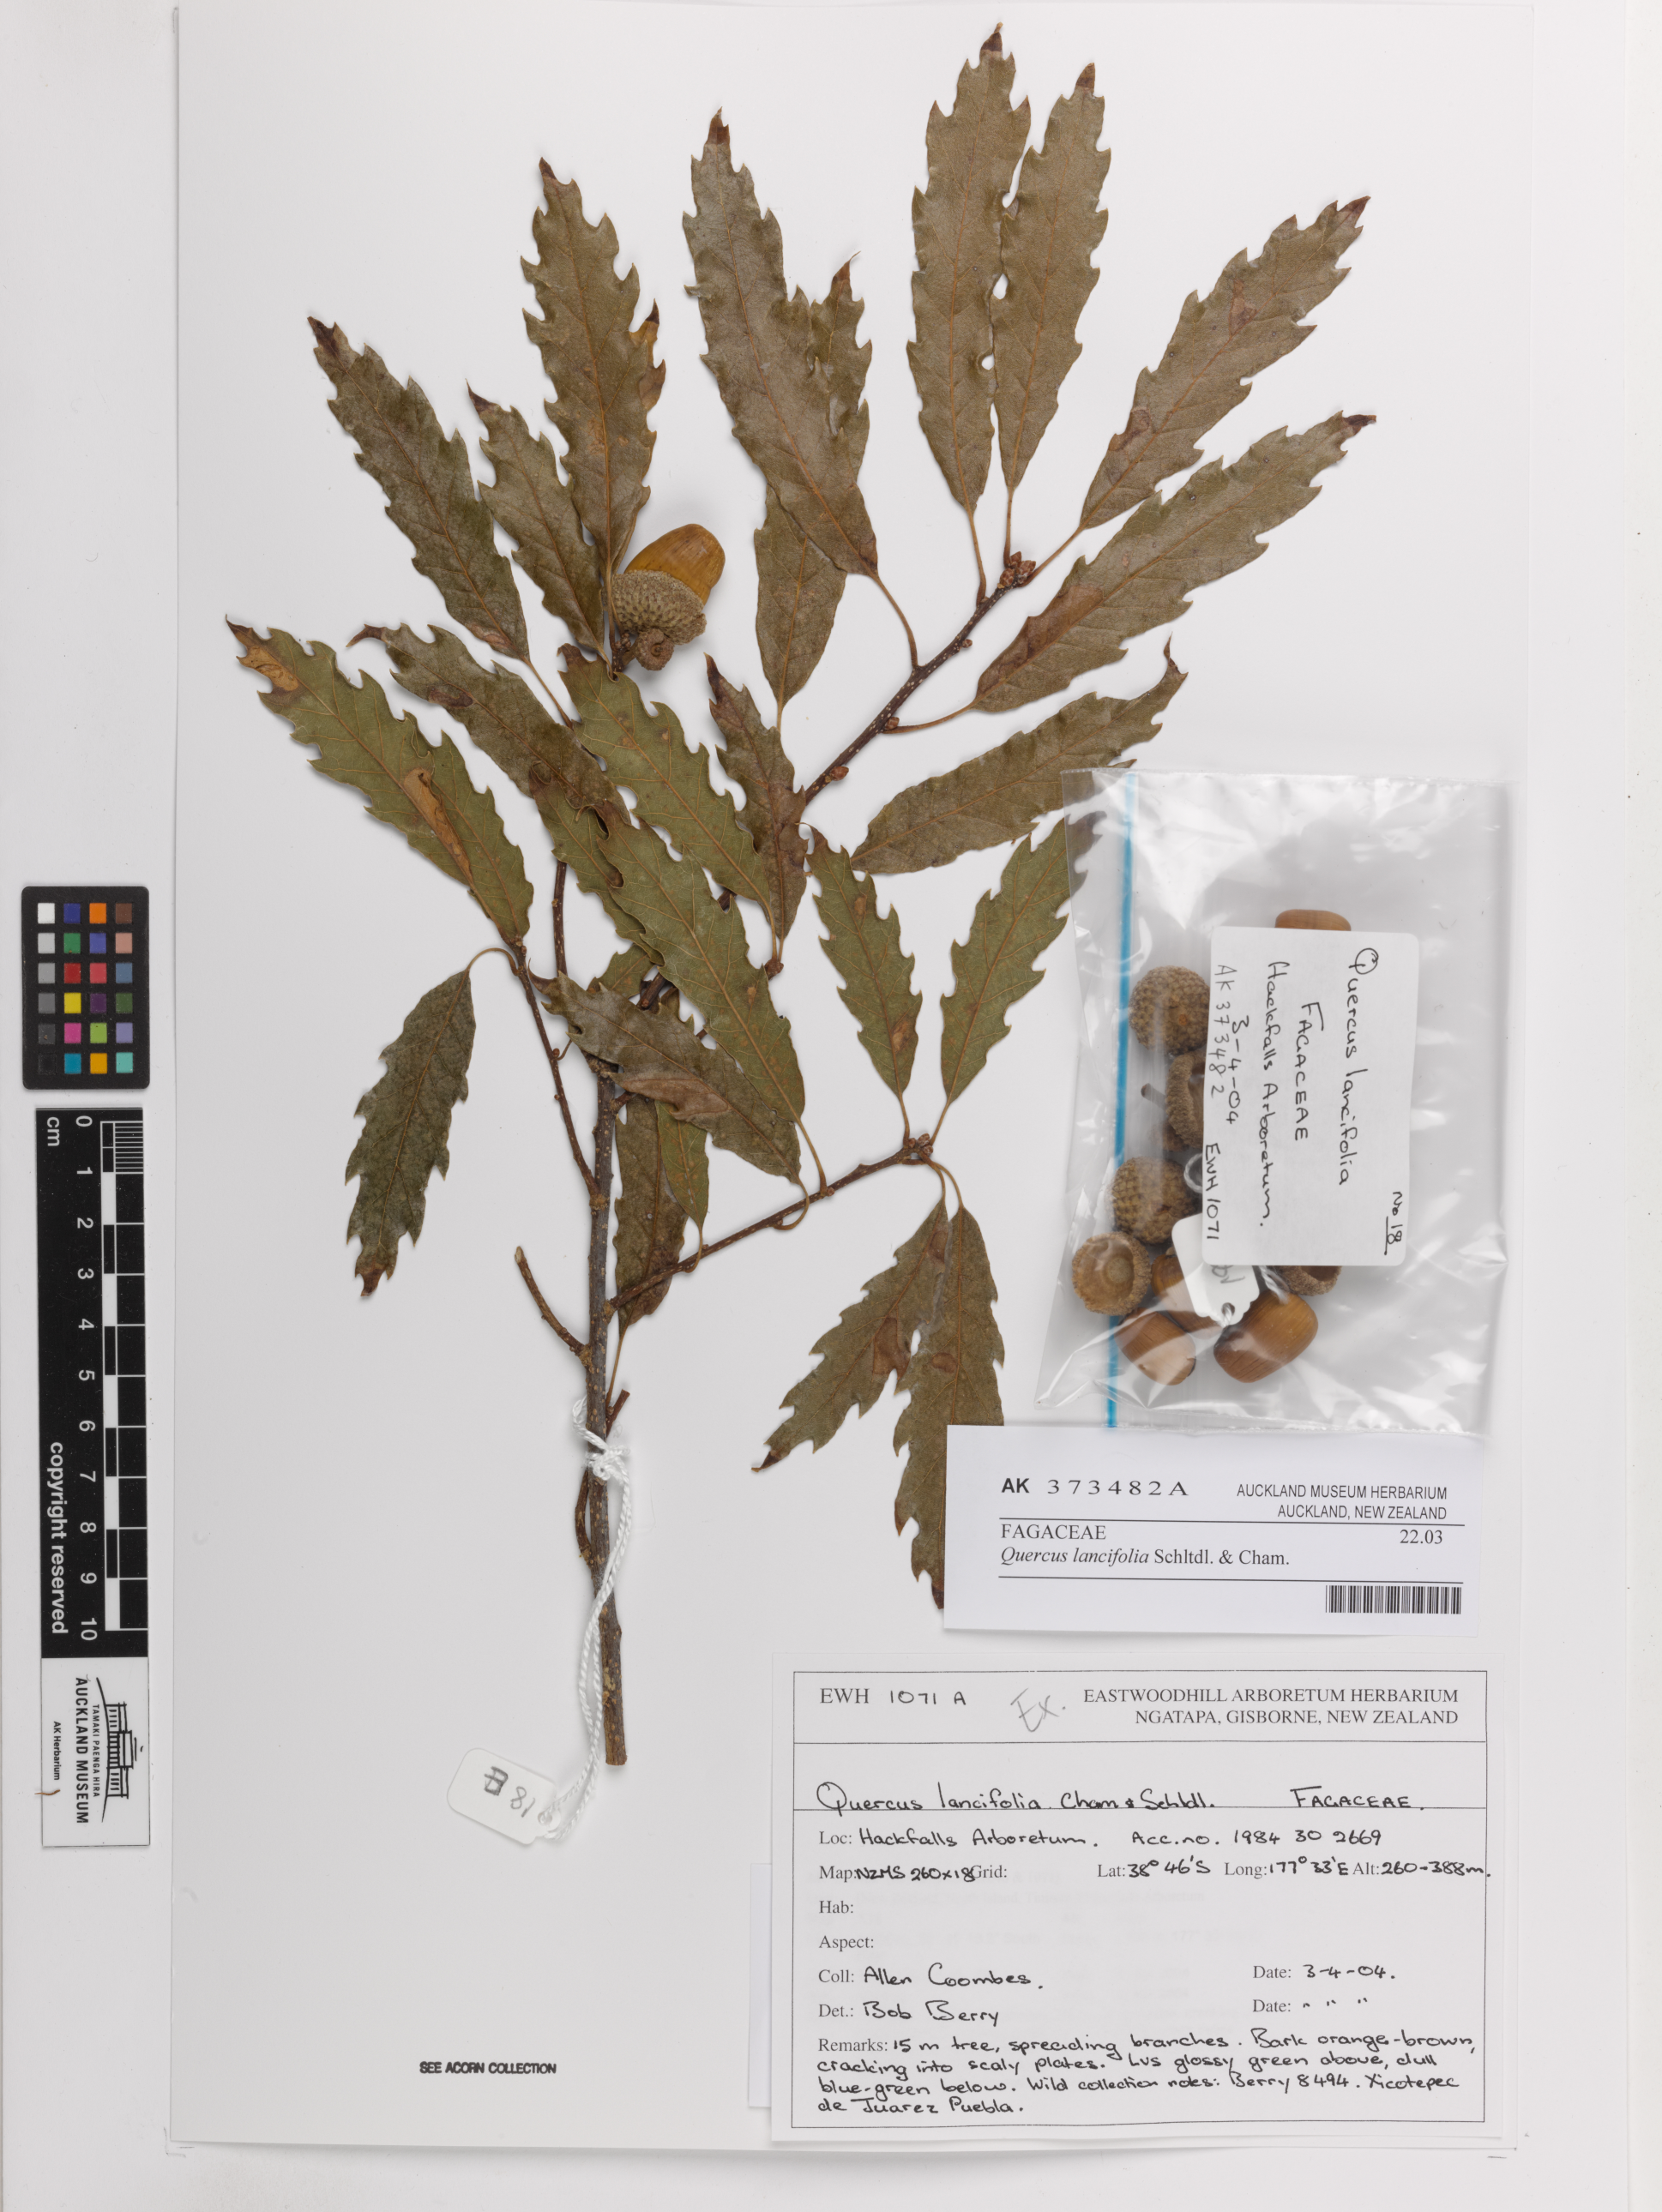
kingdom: Plantae
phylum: Tracheophyta
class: Magnoliopsida
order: Fagales
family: Fagaceae
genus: Quercus
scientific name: Quercus lancifolia
